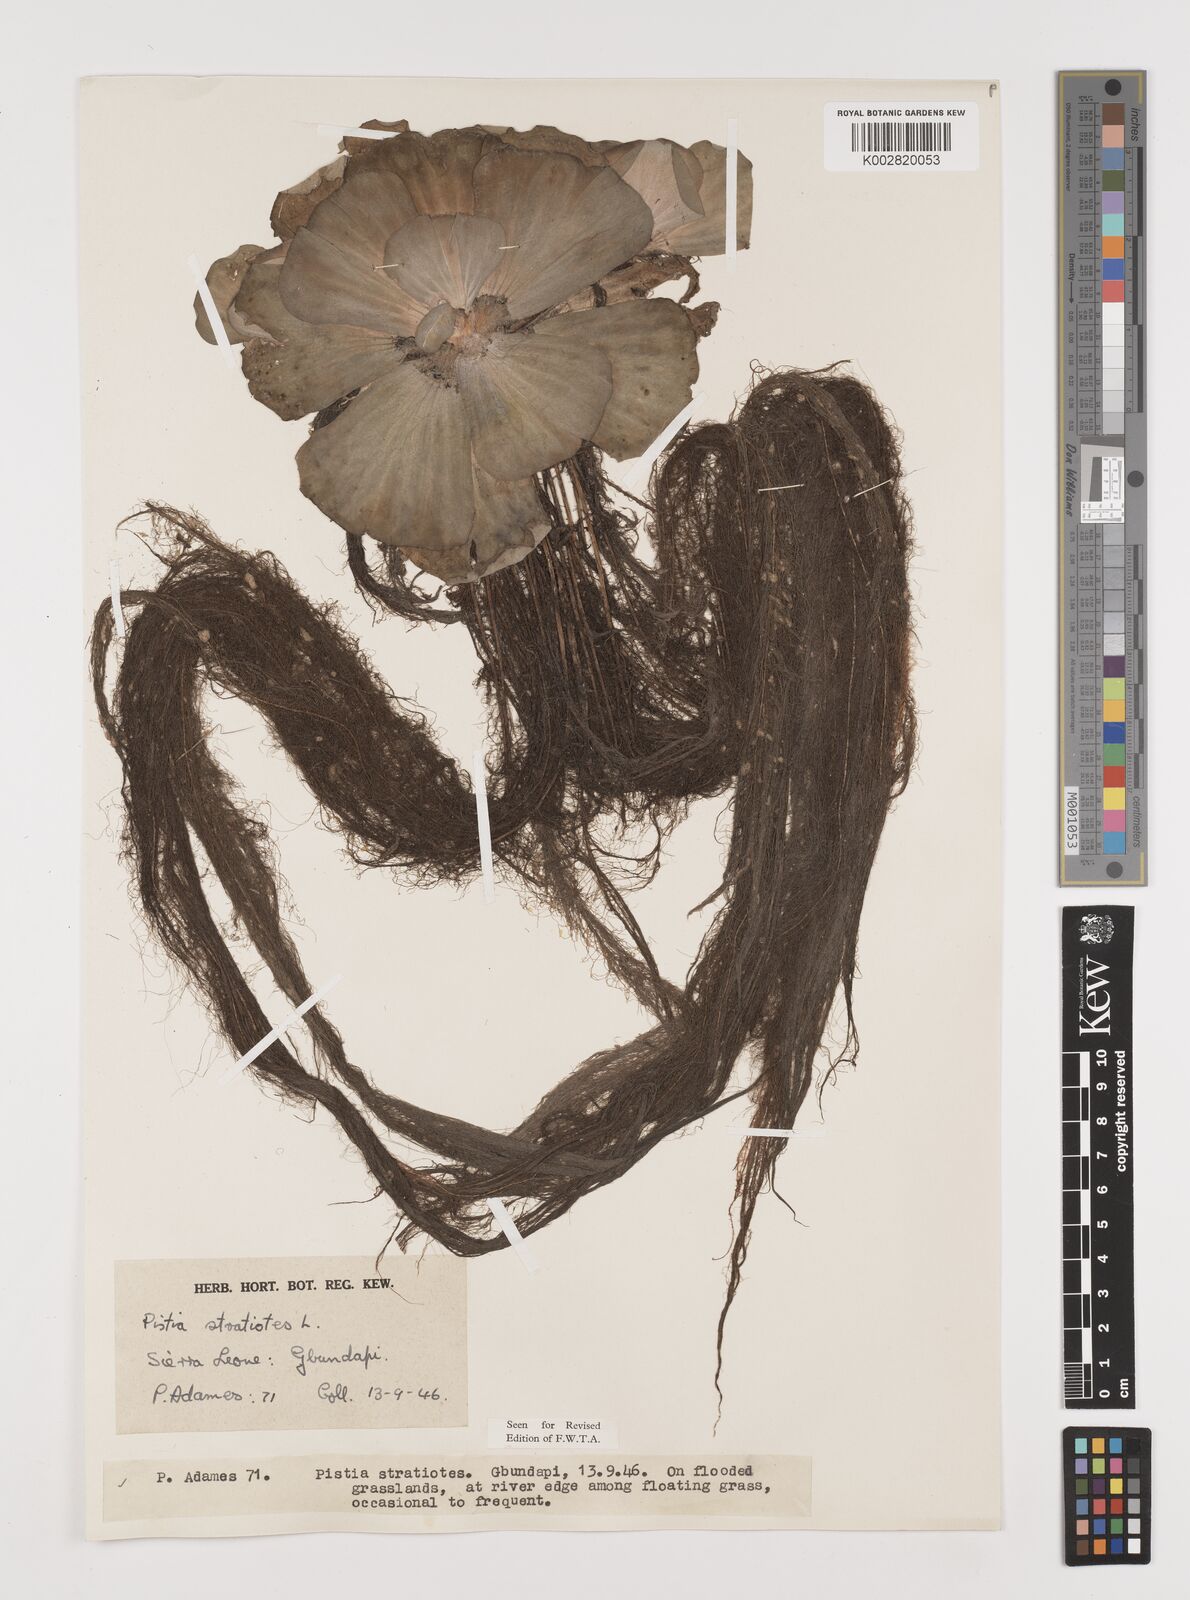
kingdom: Plantae
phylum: Tracheophyta
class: Liliopsida
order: Alismatales
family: Araceae
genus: Pistia
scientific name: Pistia stratiotes
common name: Water lettuce
